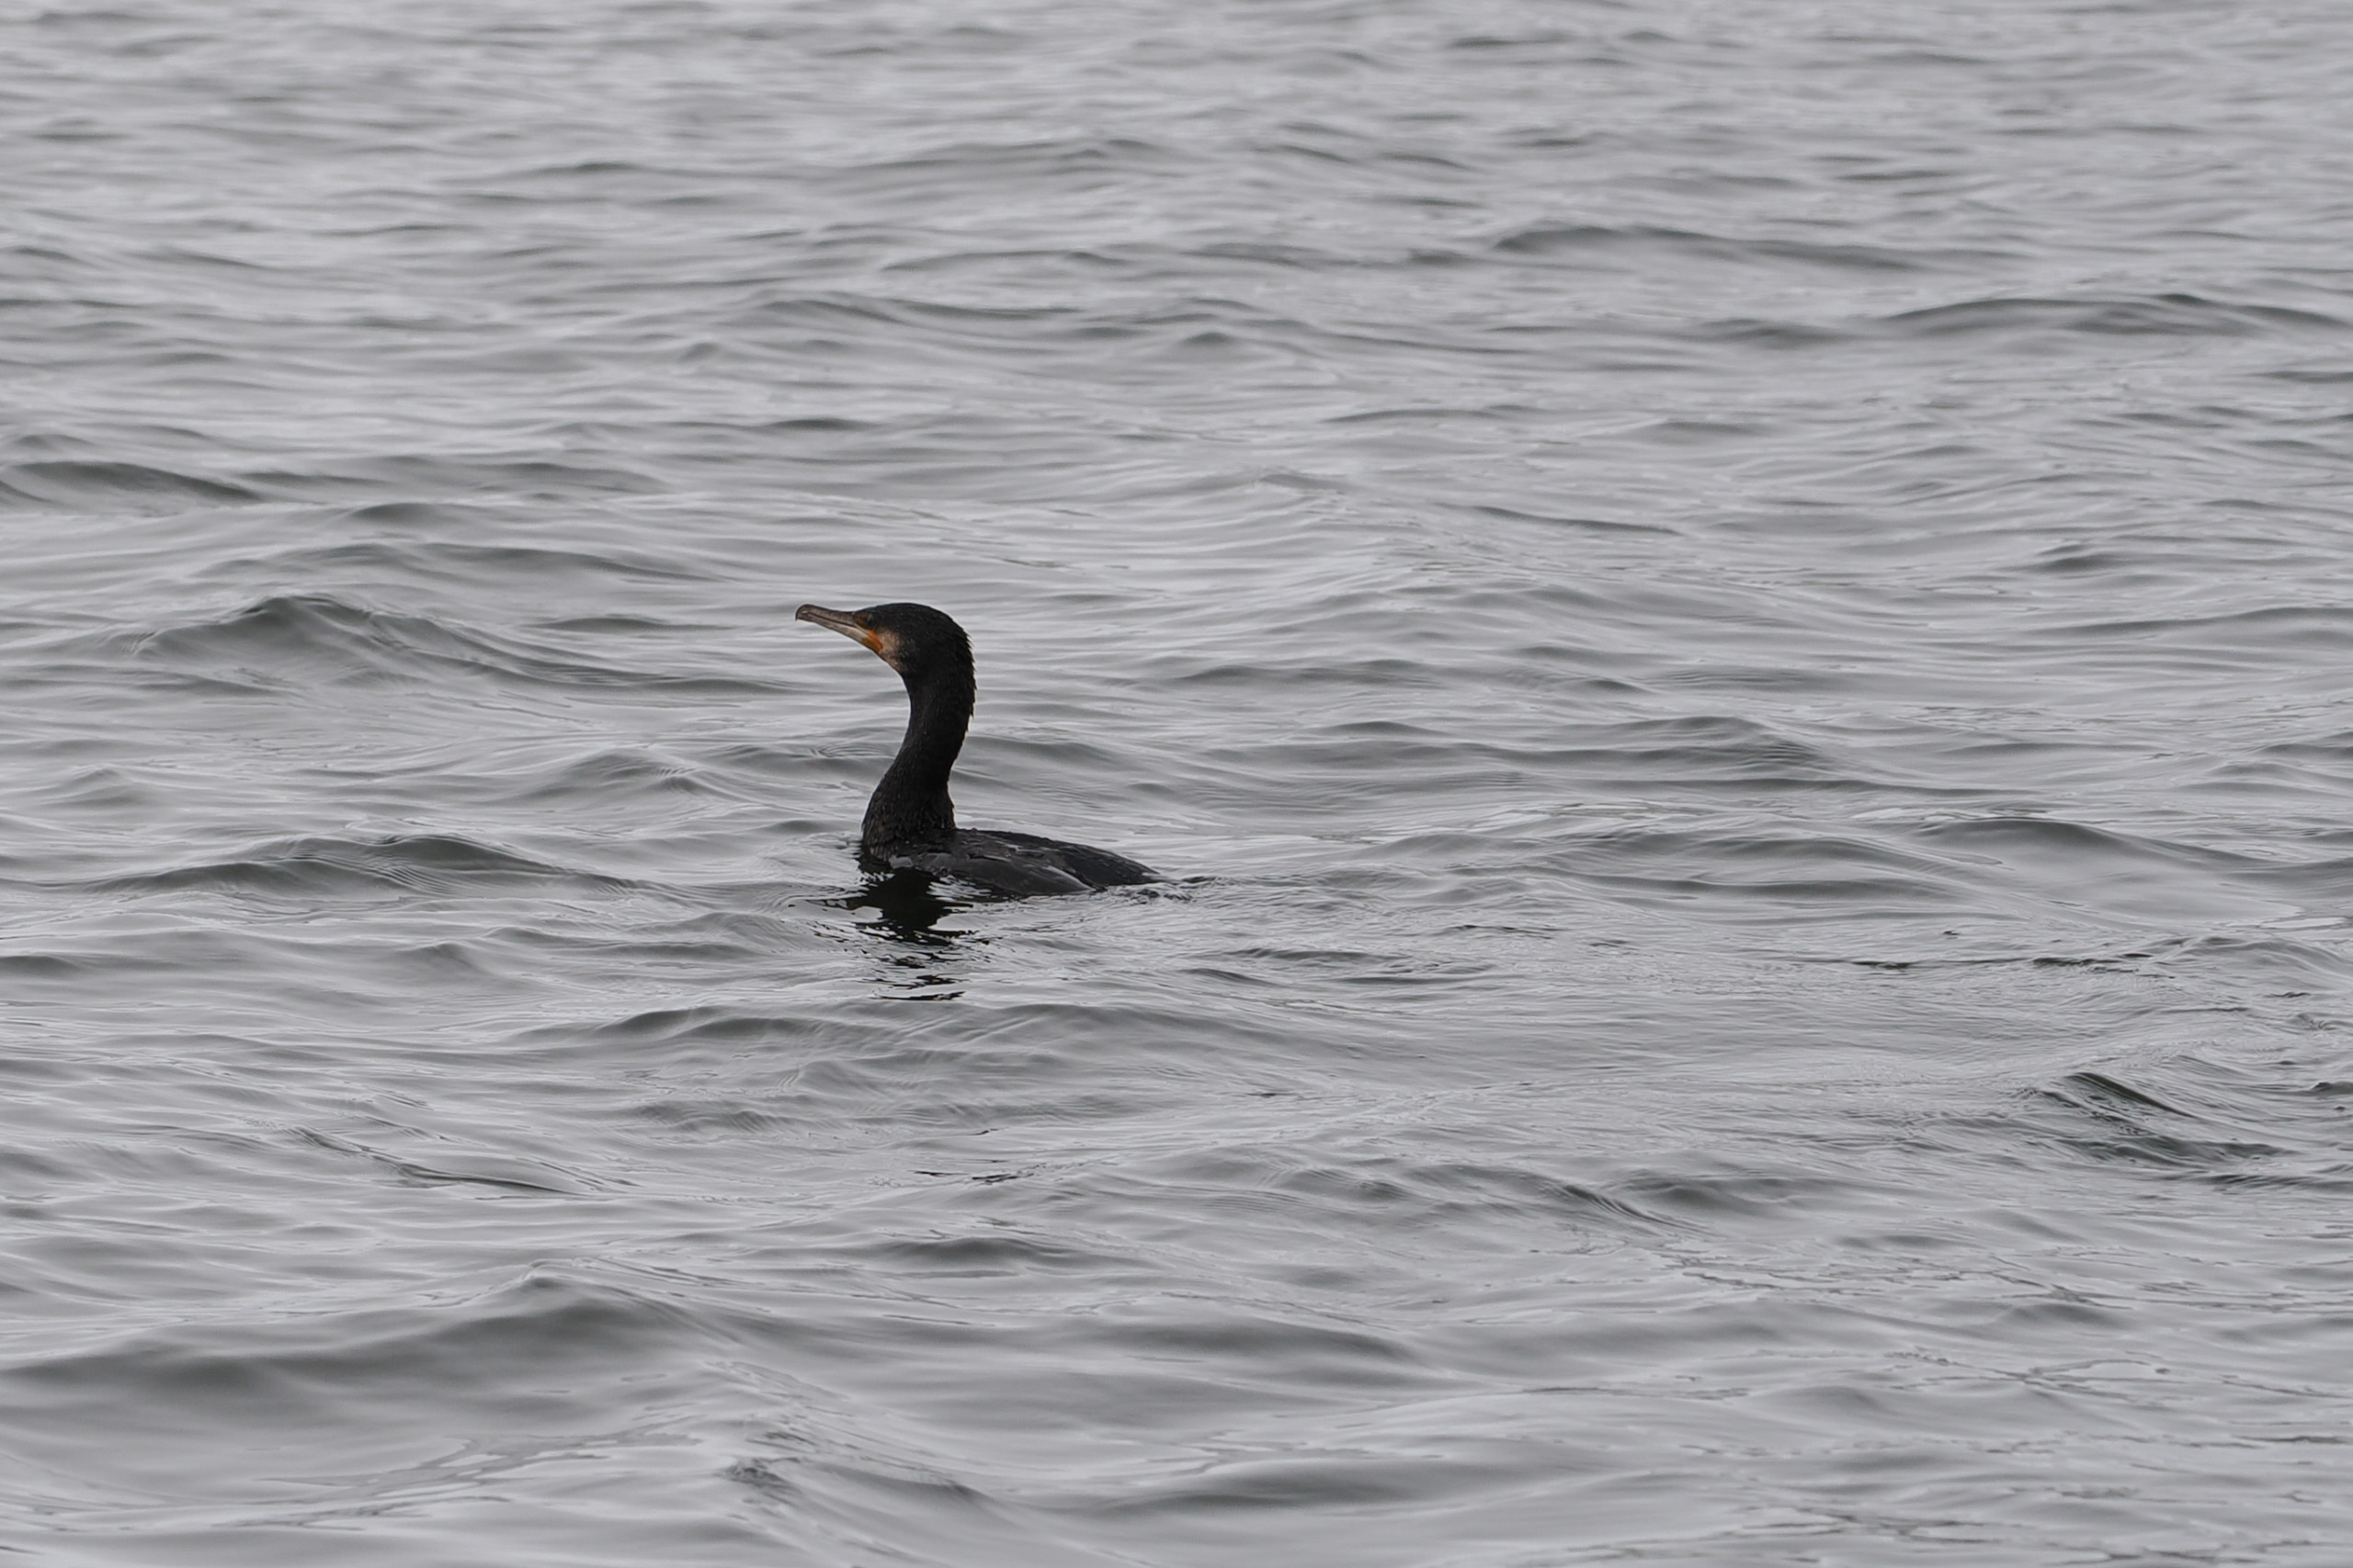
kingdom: Animalia
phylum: Chordata
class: Aves
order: Suliformes
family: Phalacrocoracidae
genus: Phalacrocorax
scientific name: Phalacrocorax carbo
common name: Skarv
